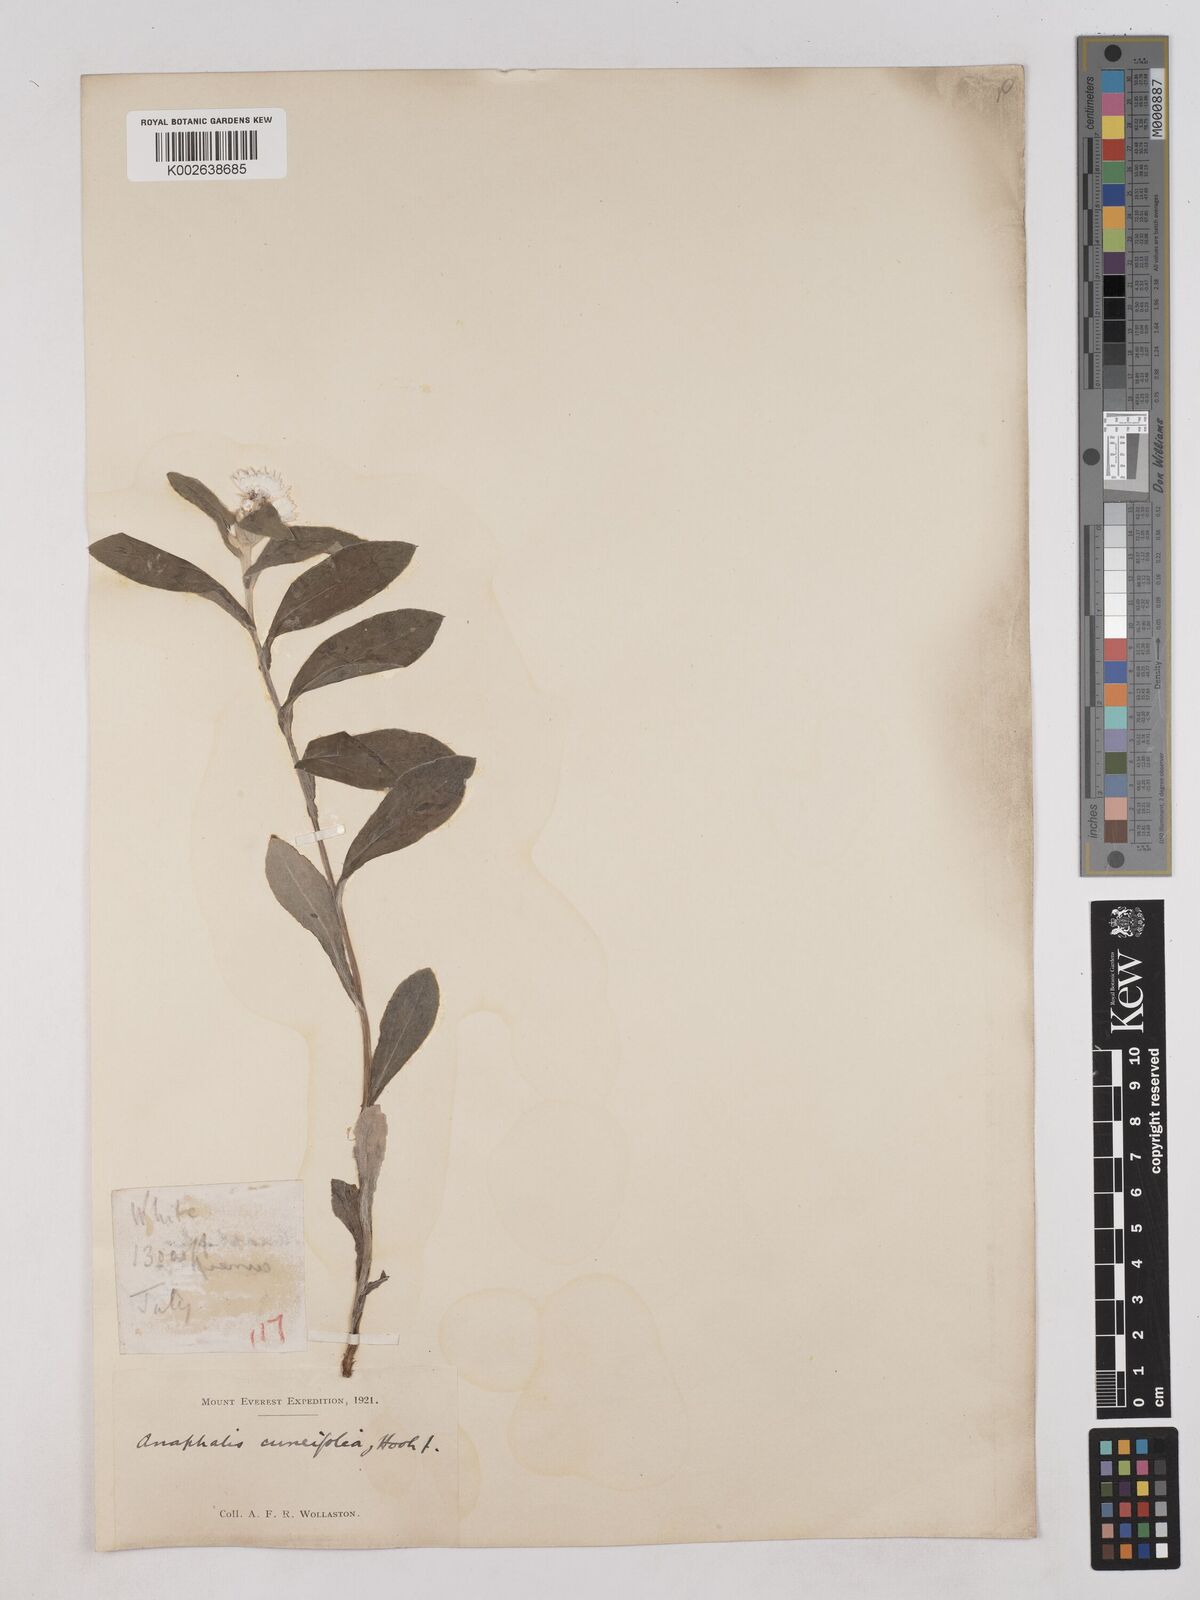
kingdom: Plantae
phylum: Tracheophyta
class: Magnoliopsida
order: Asterales
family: Asteraceae
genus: Anaphalioides
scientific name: Anaphalioides trinervis
